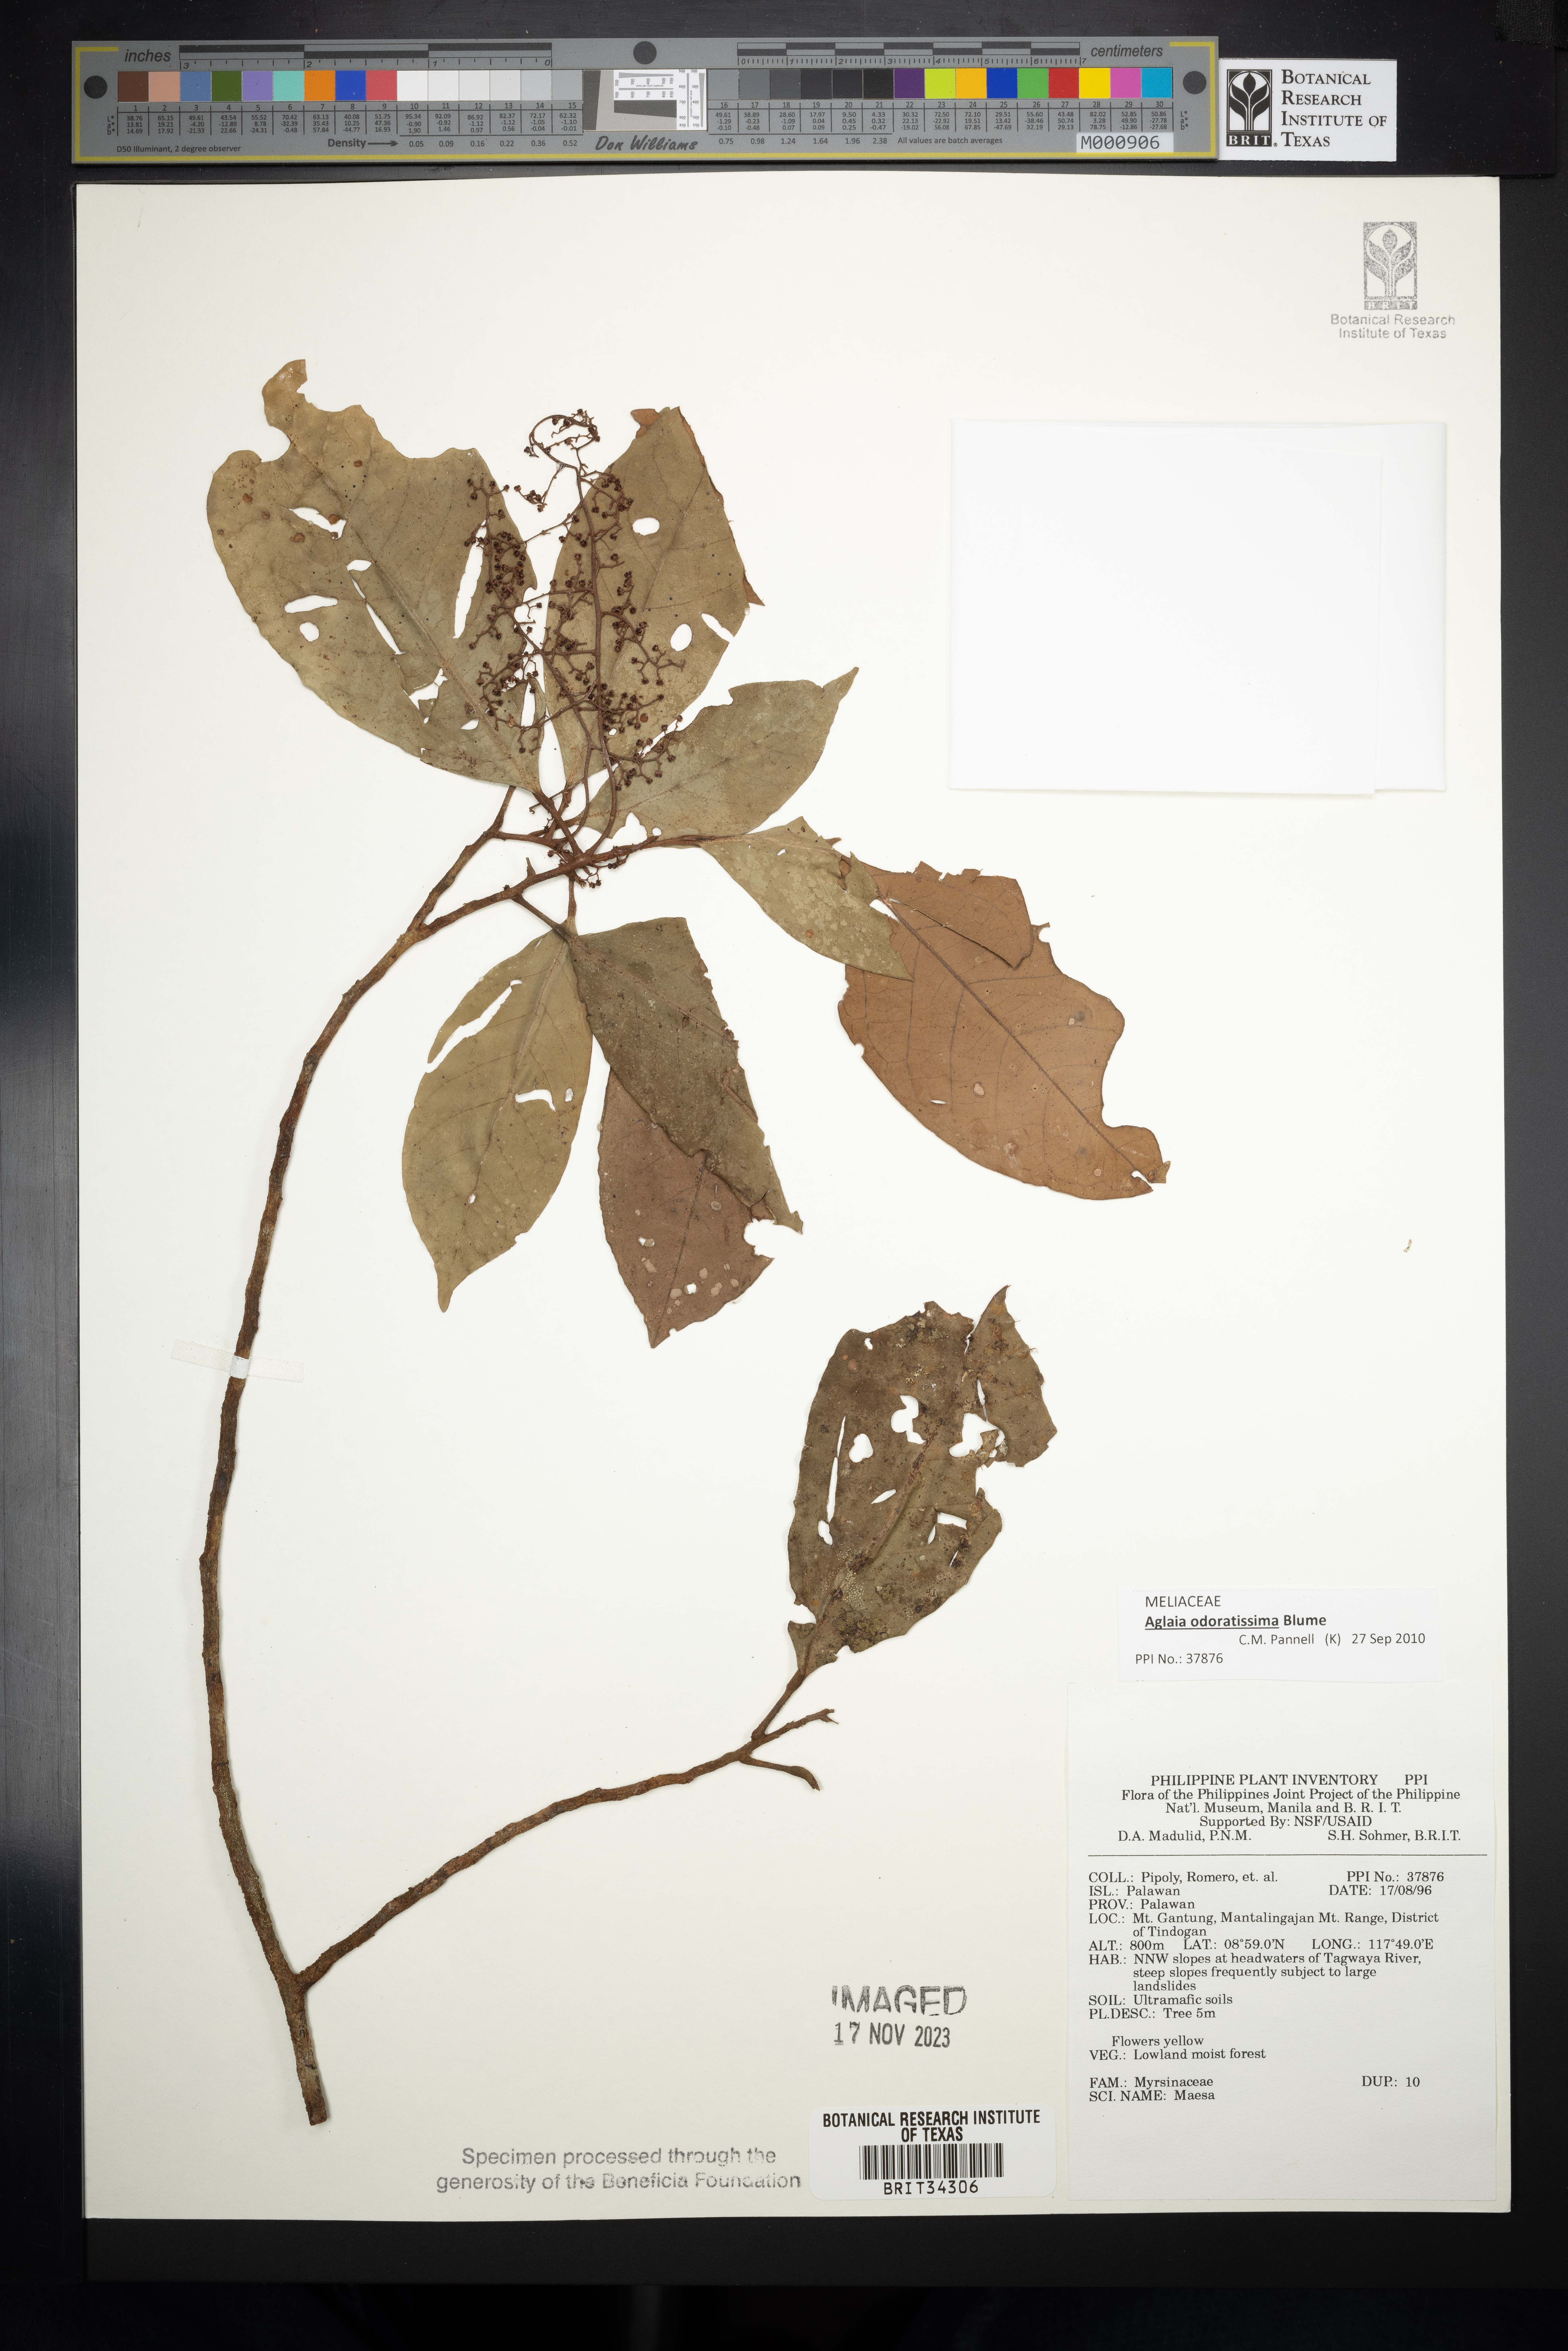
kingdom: Plantae
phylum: Tracheophyta
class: Magnoliopsida
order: Ericales
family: Primulaceae
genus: Maesa
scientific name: Maesa
